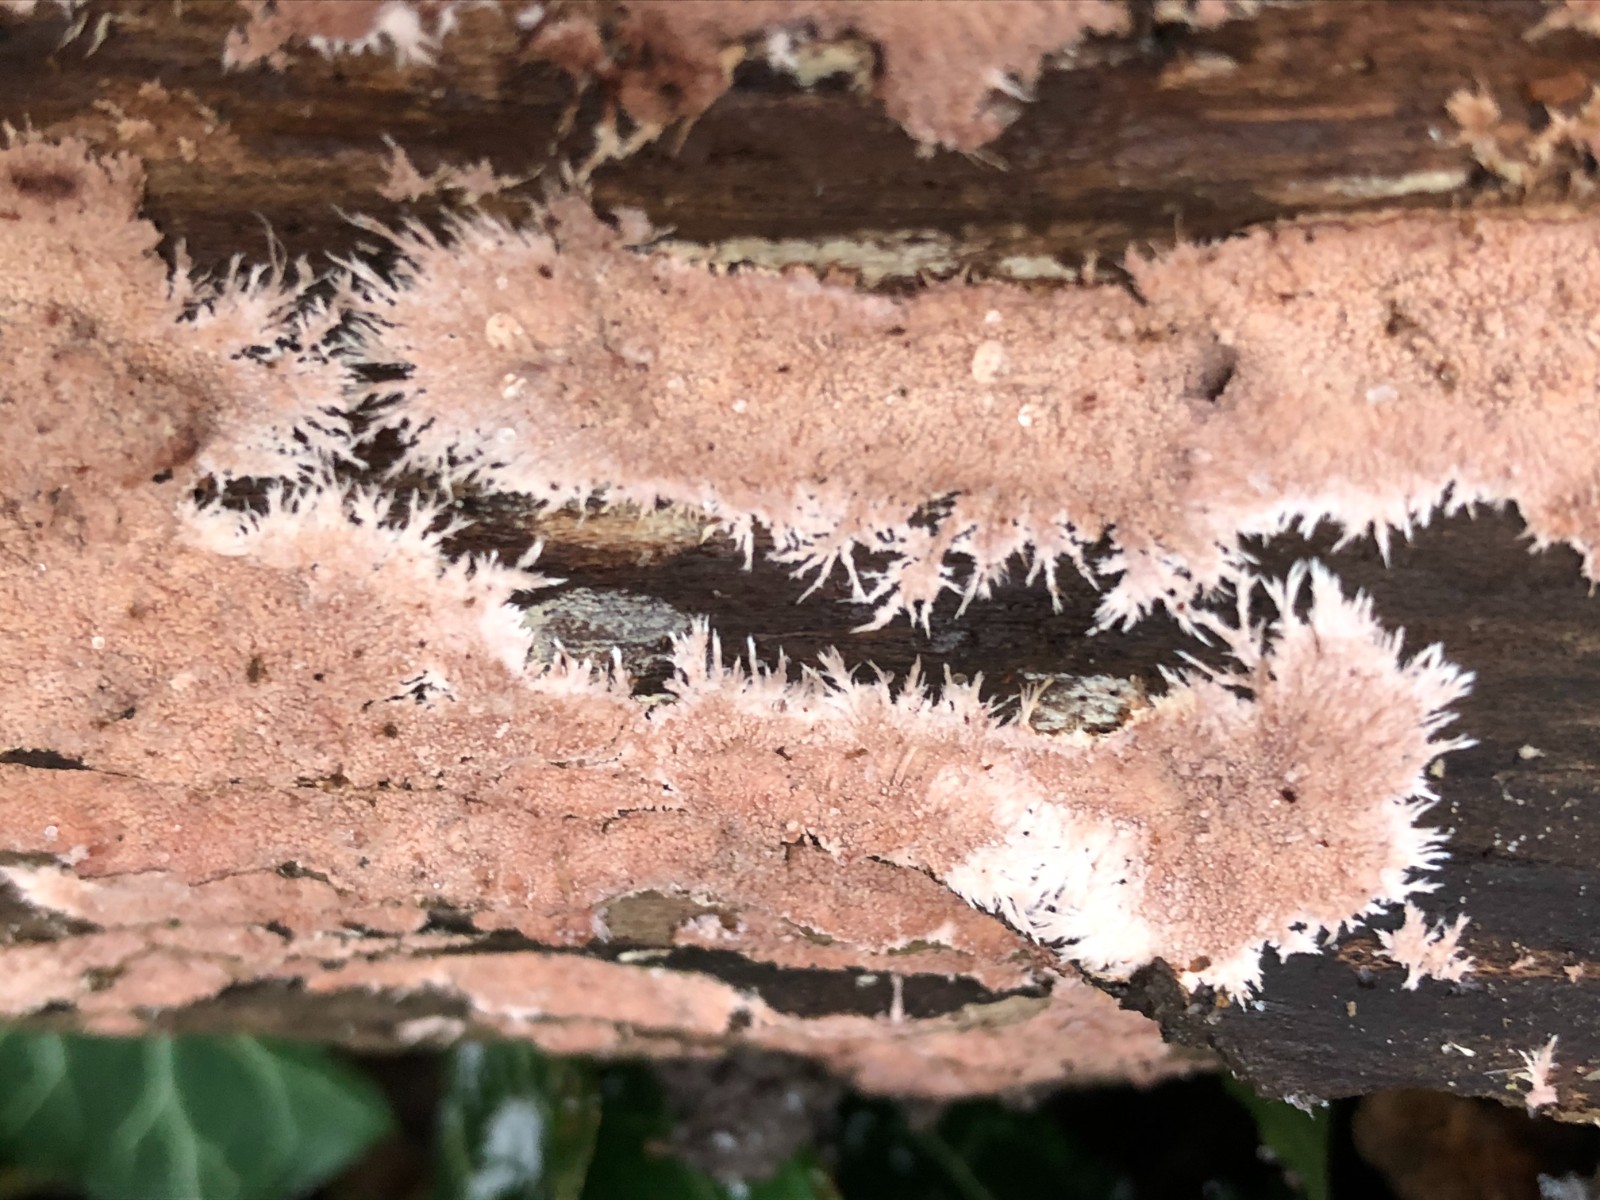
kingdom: Fungi
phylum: Basidiomycota
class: Agaricomycetes
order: Polyporales
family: Steccherinaceae
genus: Steccherinum
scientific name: Steccherinum fimbriatum
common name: trådet skønpig
